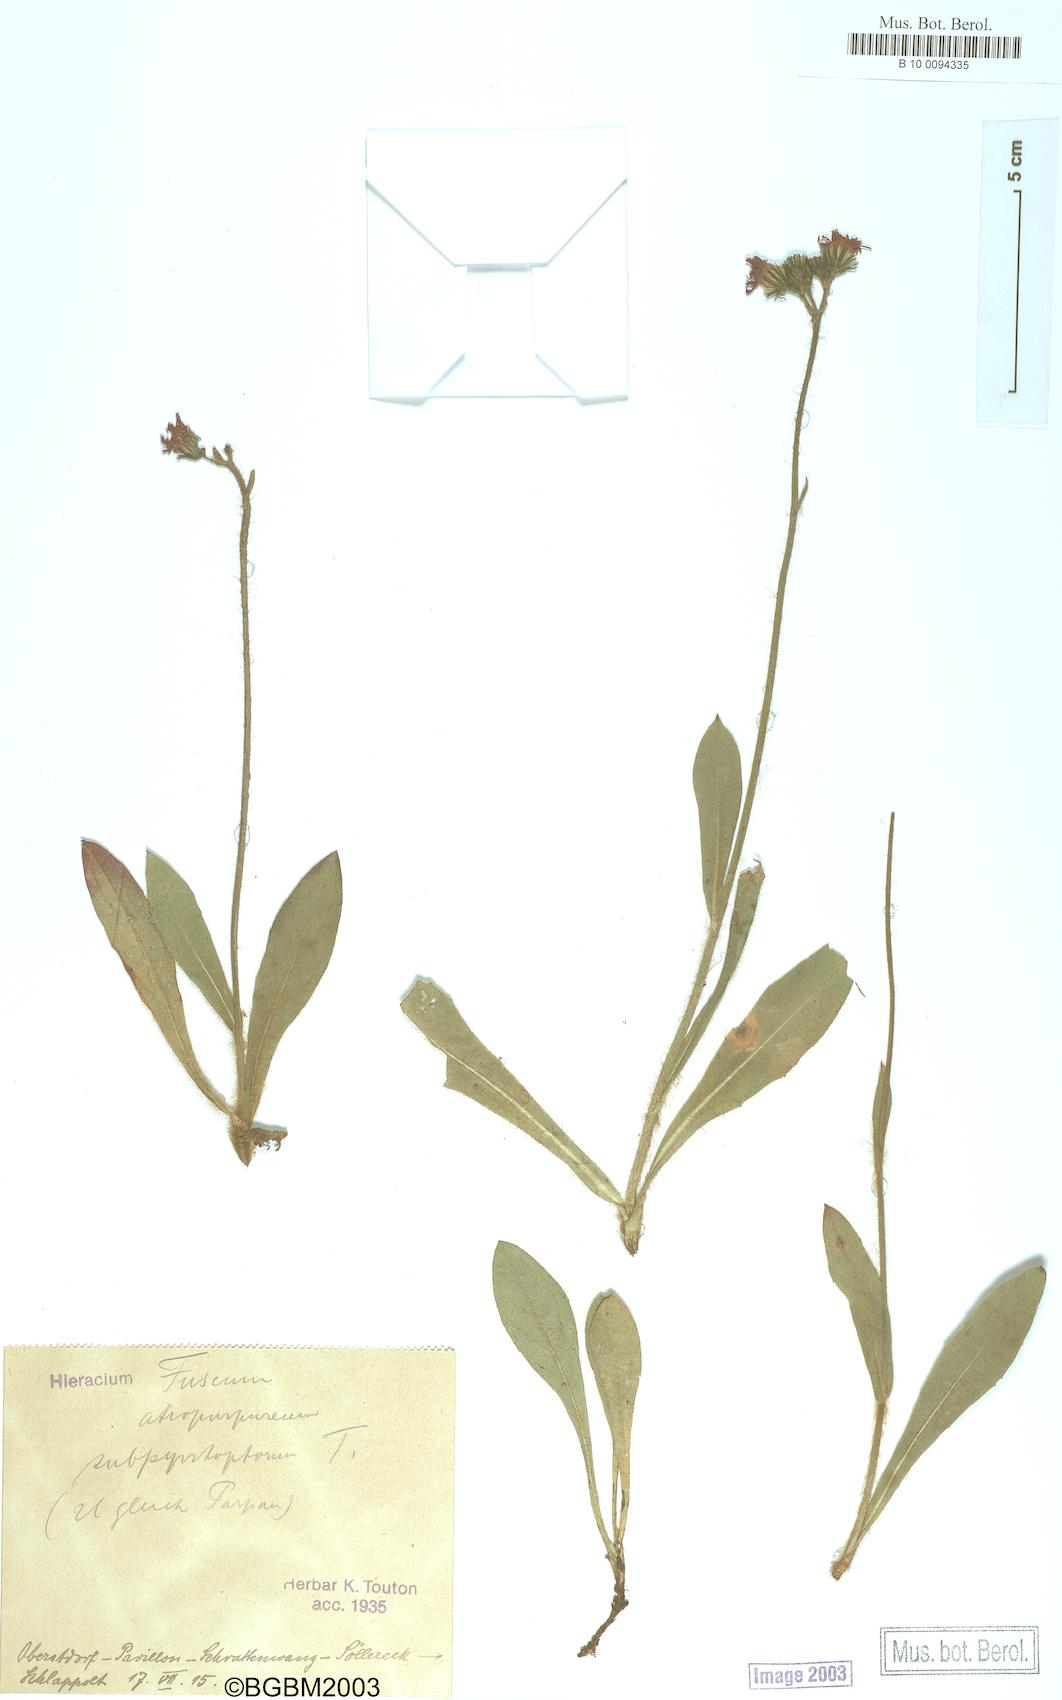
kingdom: Plantae
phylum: Tracheophyta
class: Magnoliopsida
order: Asterales
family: Asteraceae
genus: Hieracium
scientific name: Hieracium fuscum
